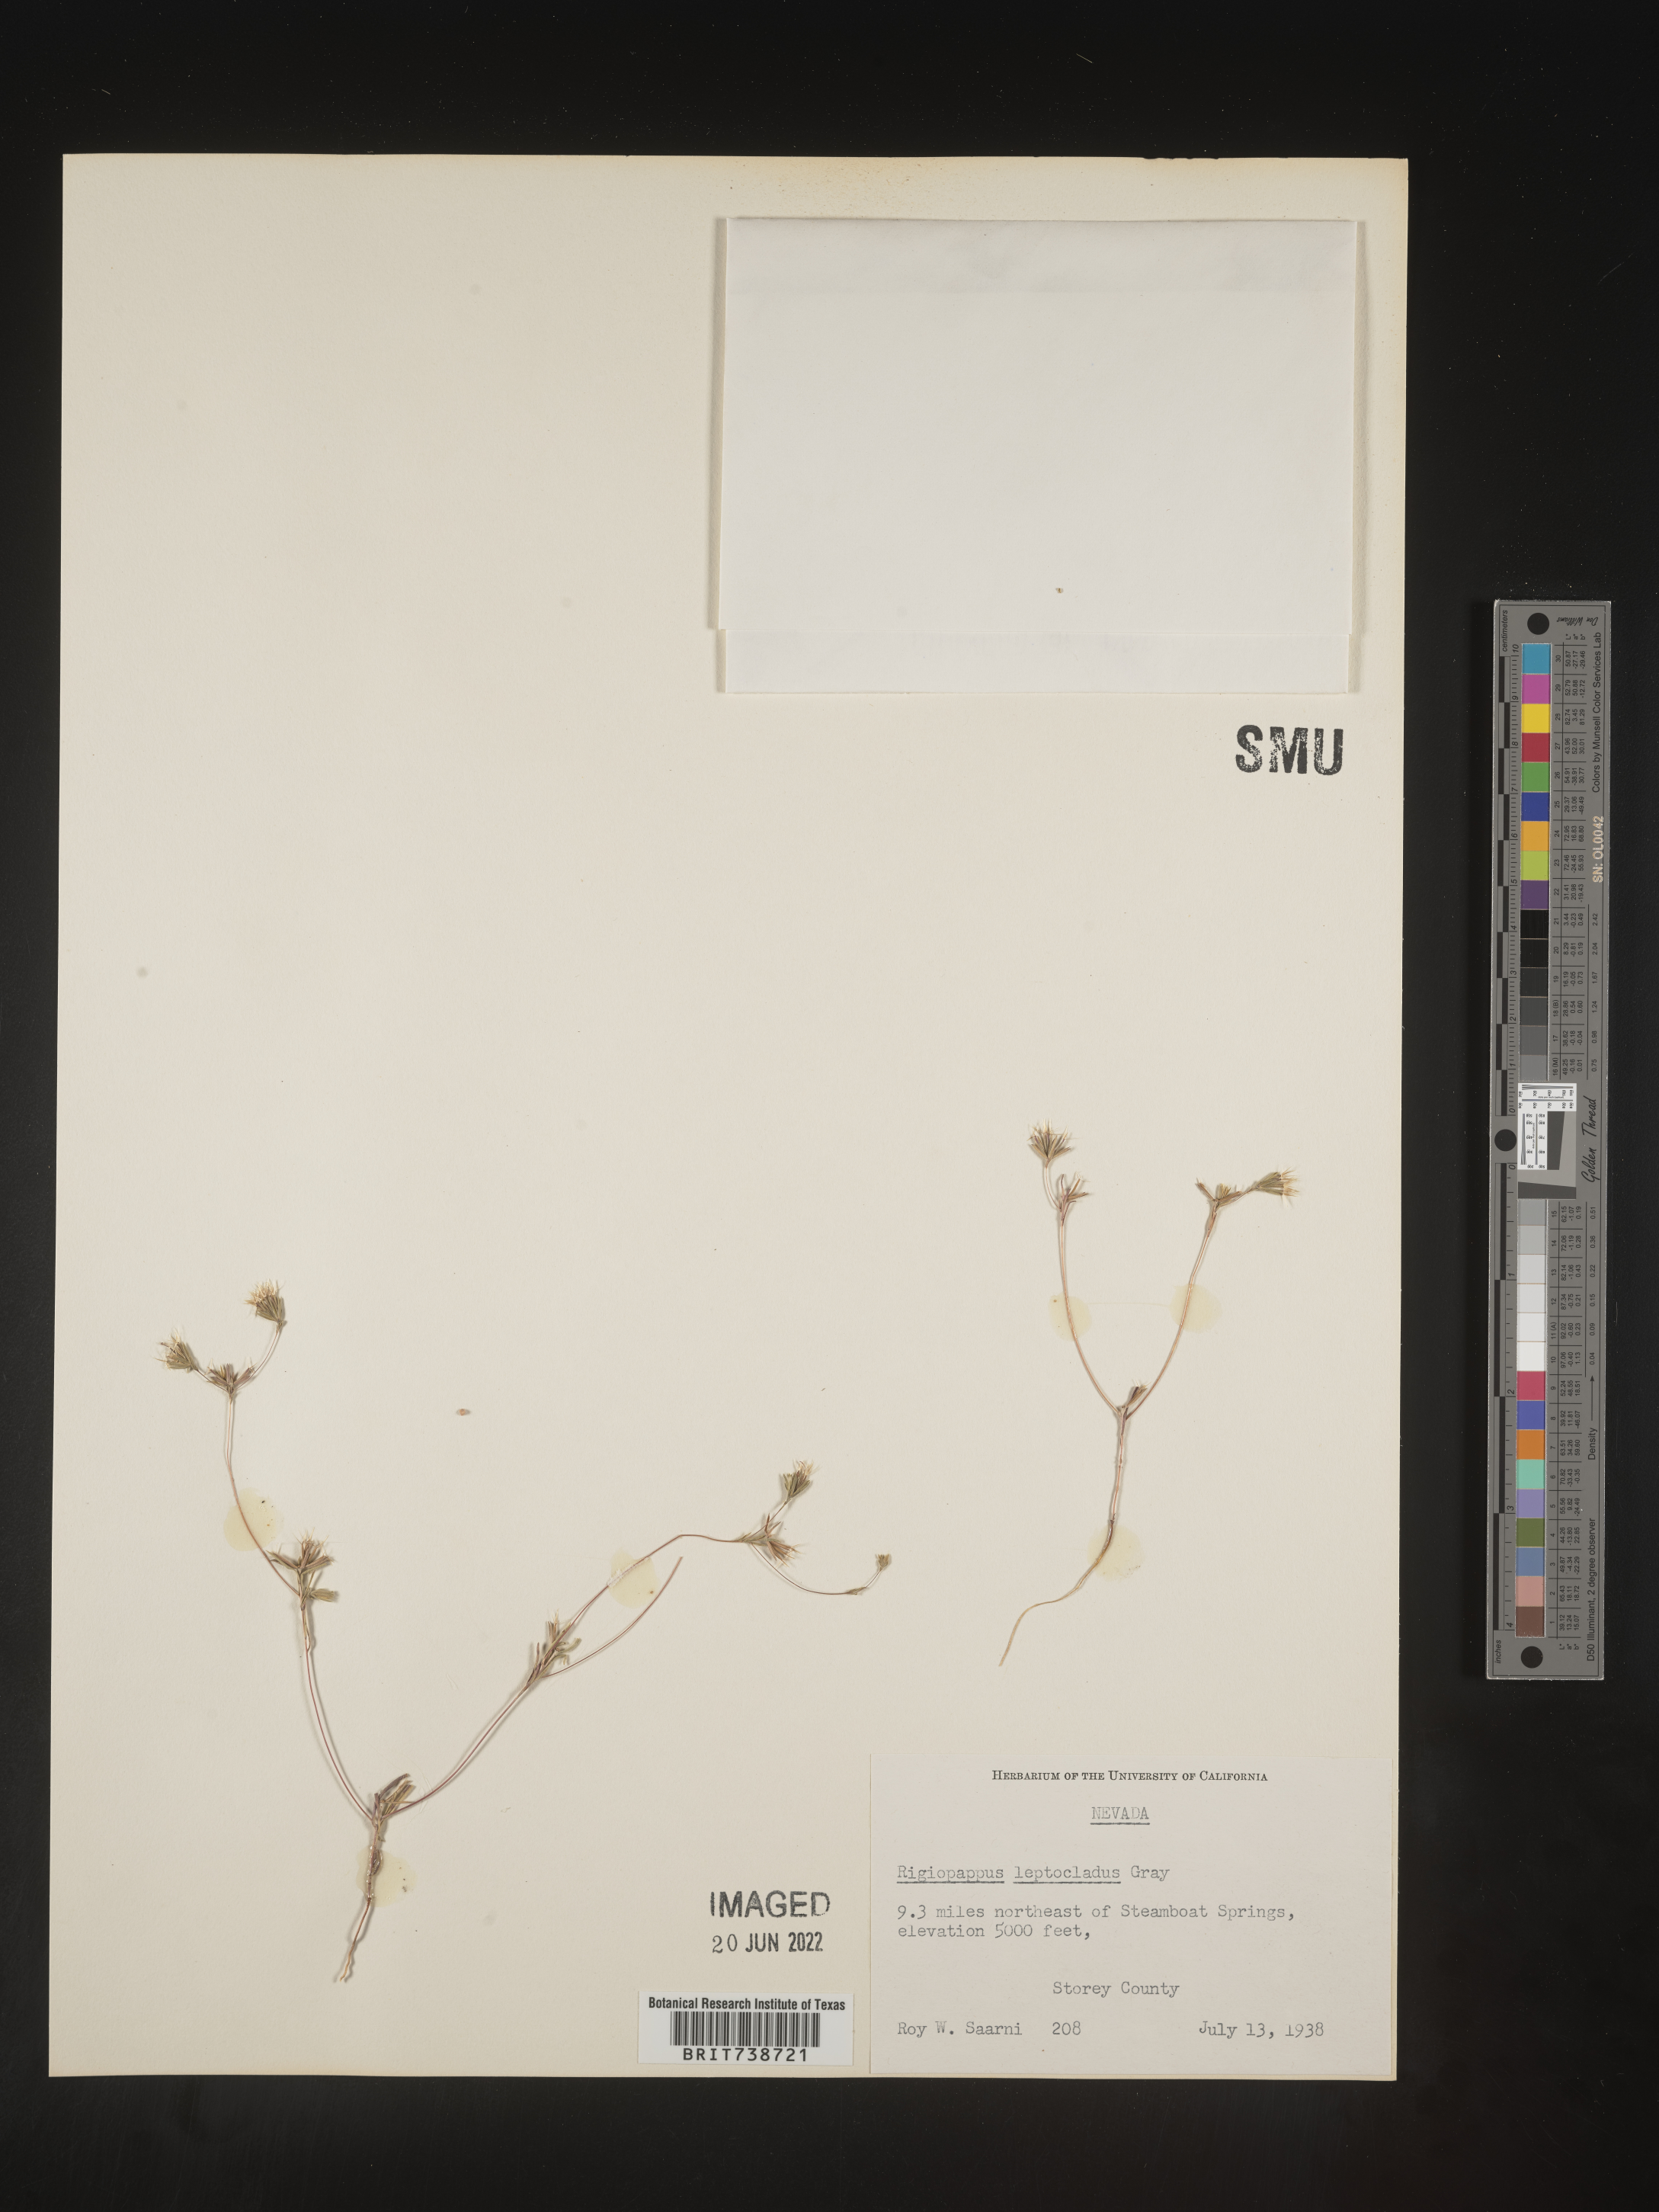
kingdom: Plantae
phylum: Tracheophyta
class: Magnoliopsida
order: Asterales
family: Asteraceae
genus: Rigiopappus
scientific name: Rigiopappus
